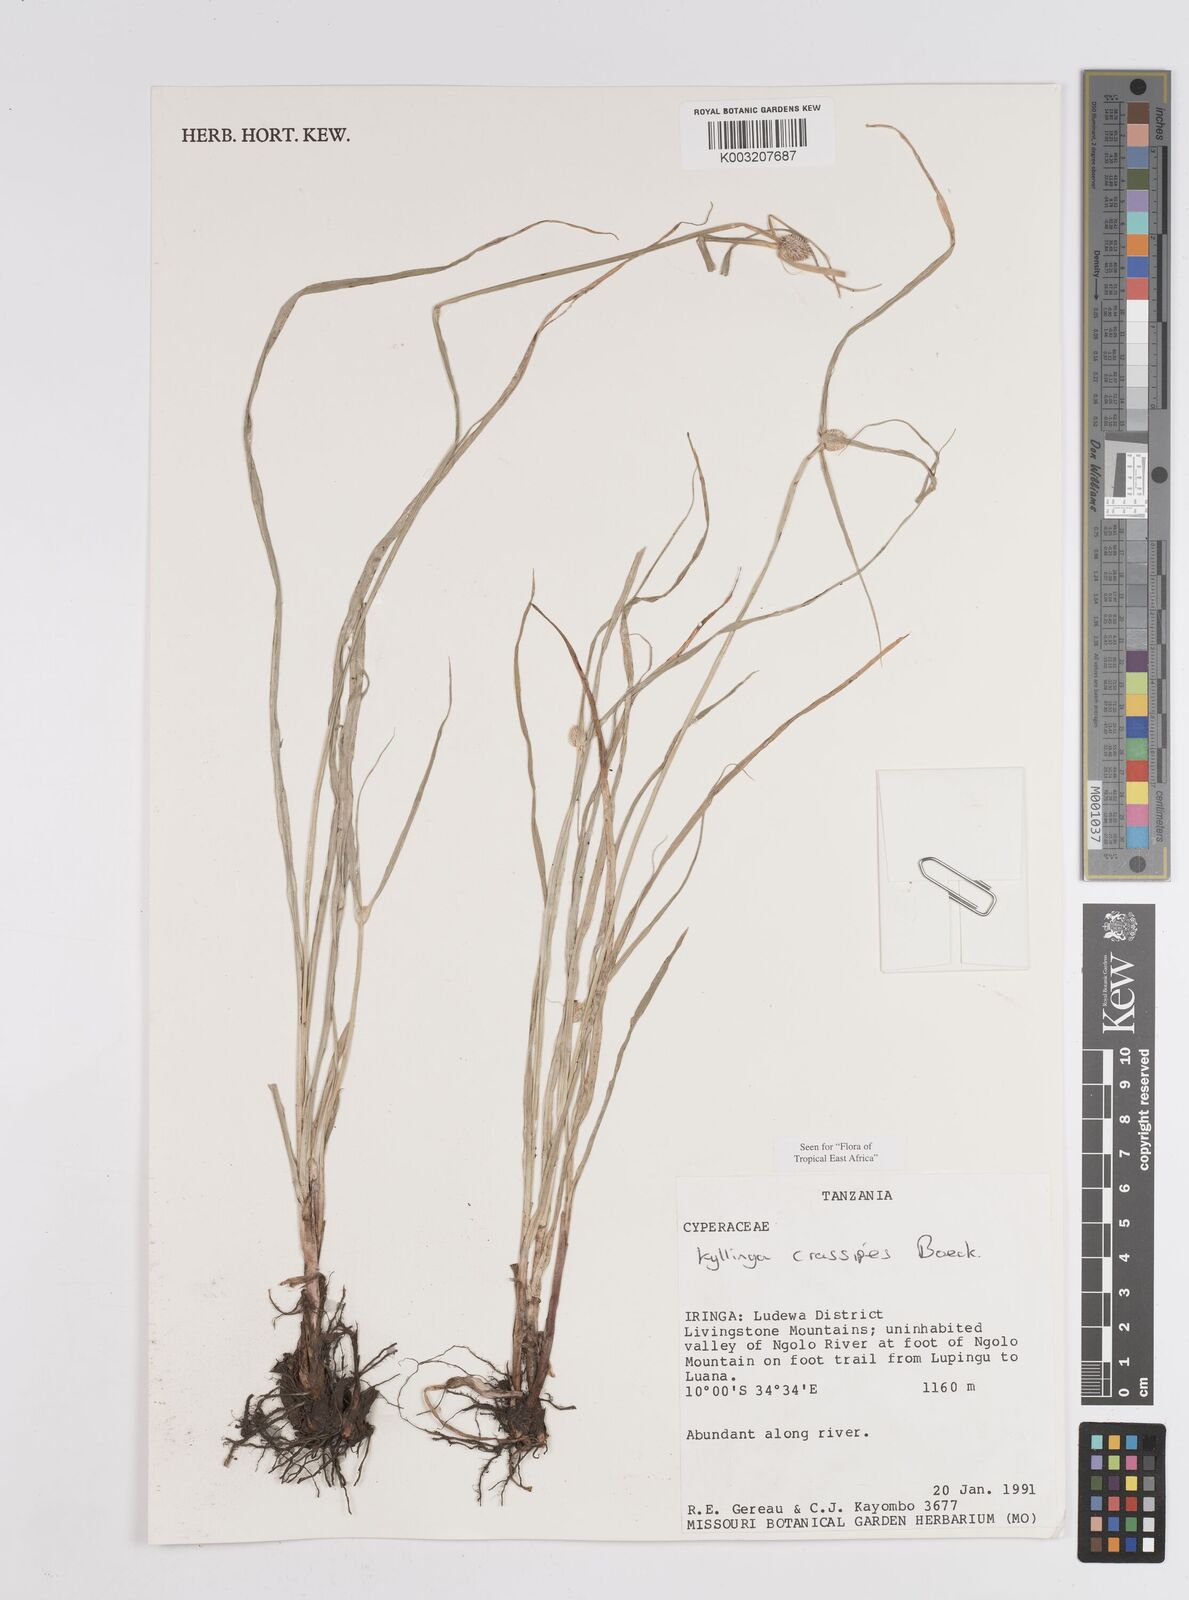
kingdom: Plantae
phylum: Tracheophyta
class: Liliopsida
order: Poales
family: Cyperaceae
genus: Cyperus
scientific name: Cyperus crassipes
